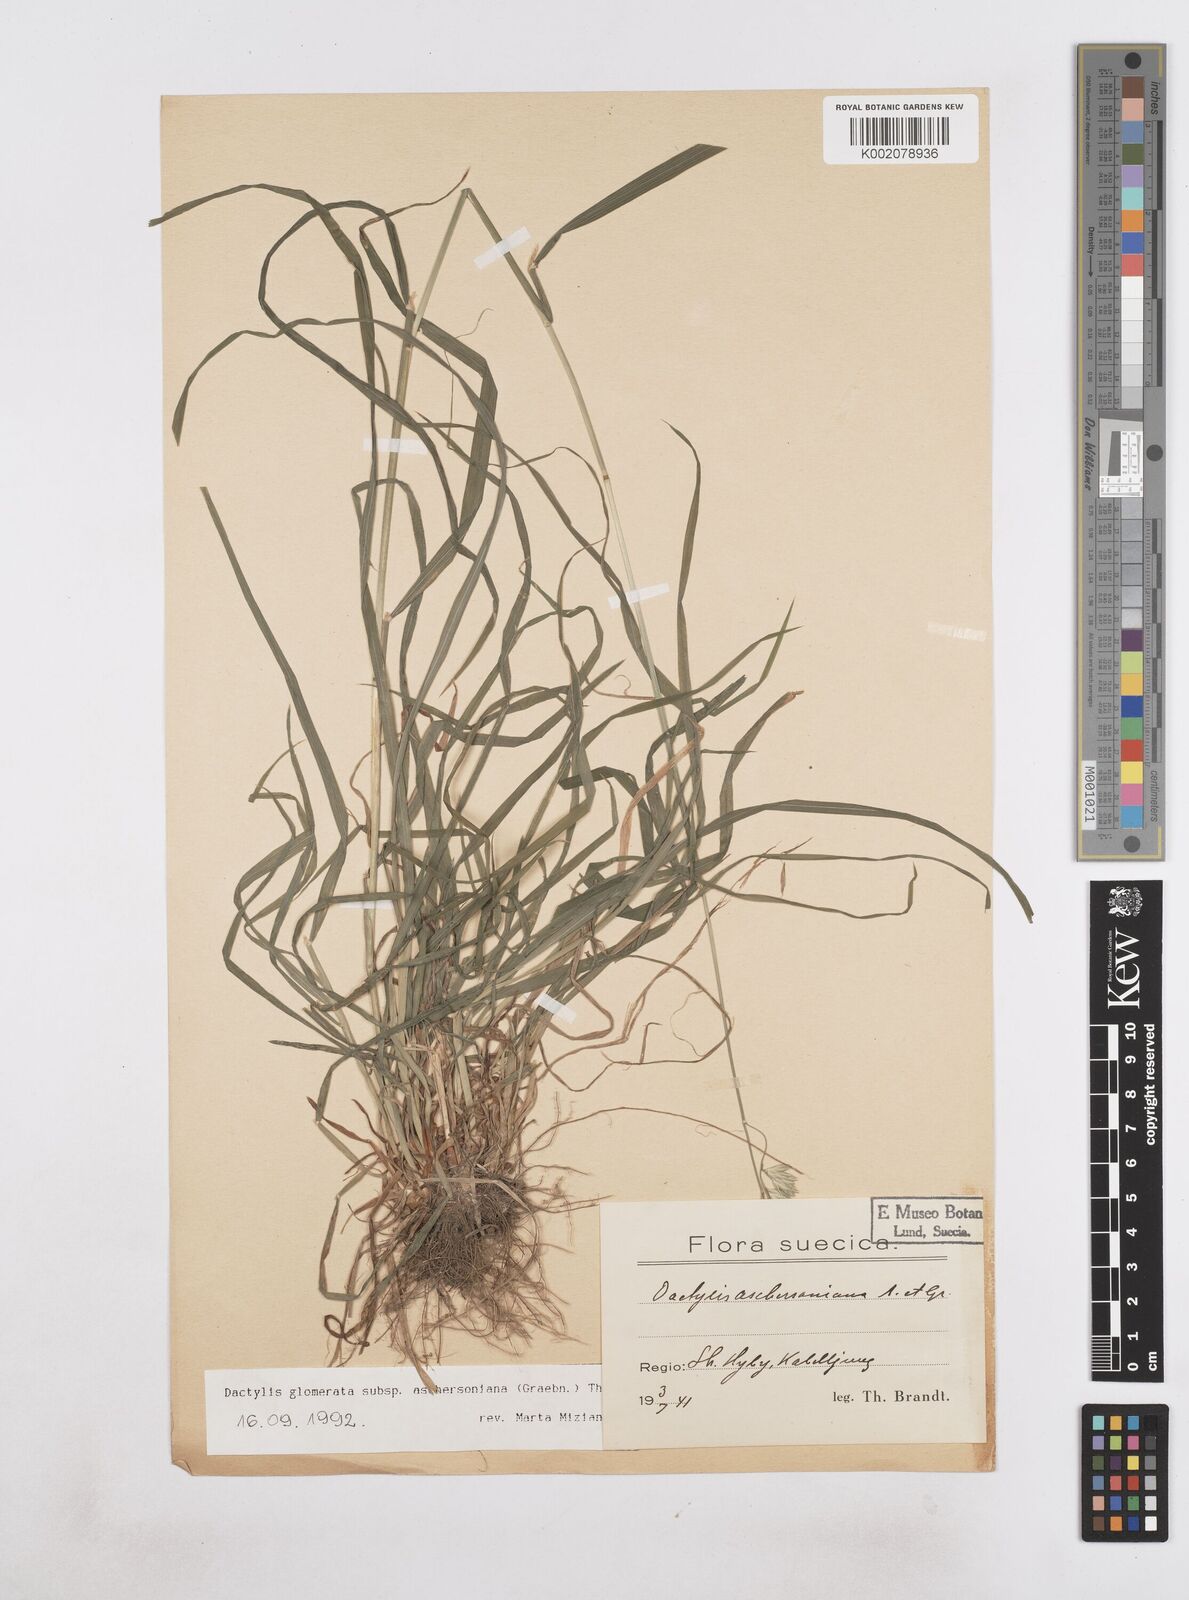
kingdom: Plantae
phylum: Tracheophyta
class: Liliopsida
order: Poales
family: Poaceae
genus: Dactylis
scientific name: Dactylis glomerata
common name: Orchardgrass
